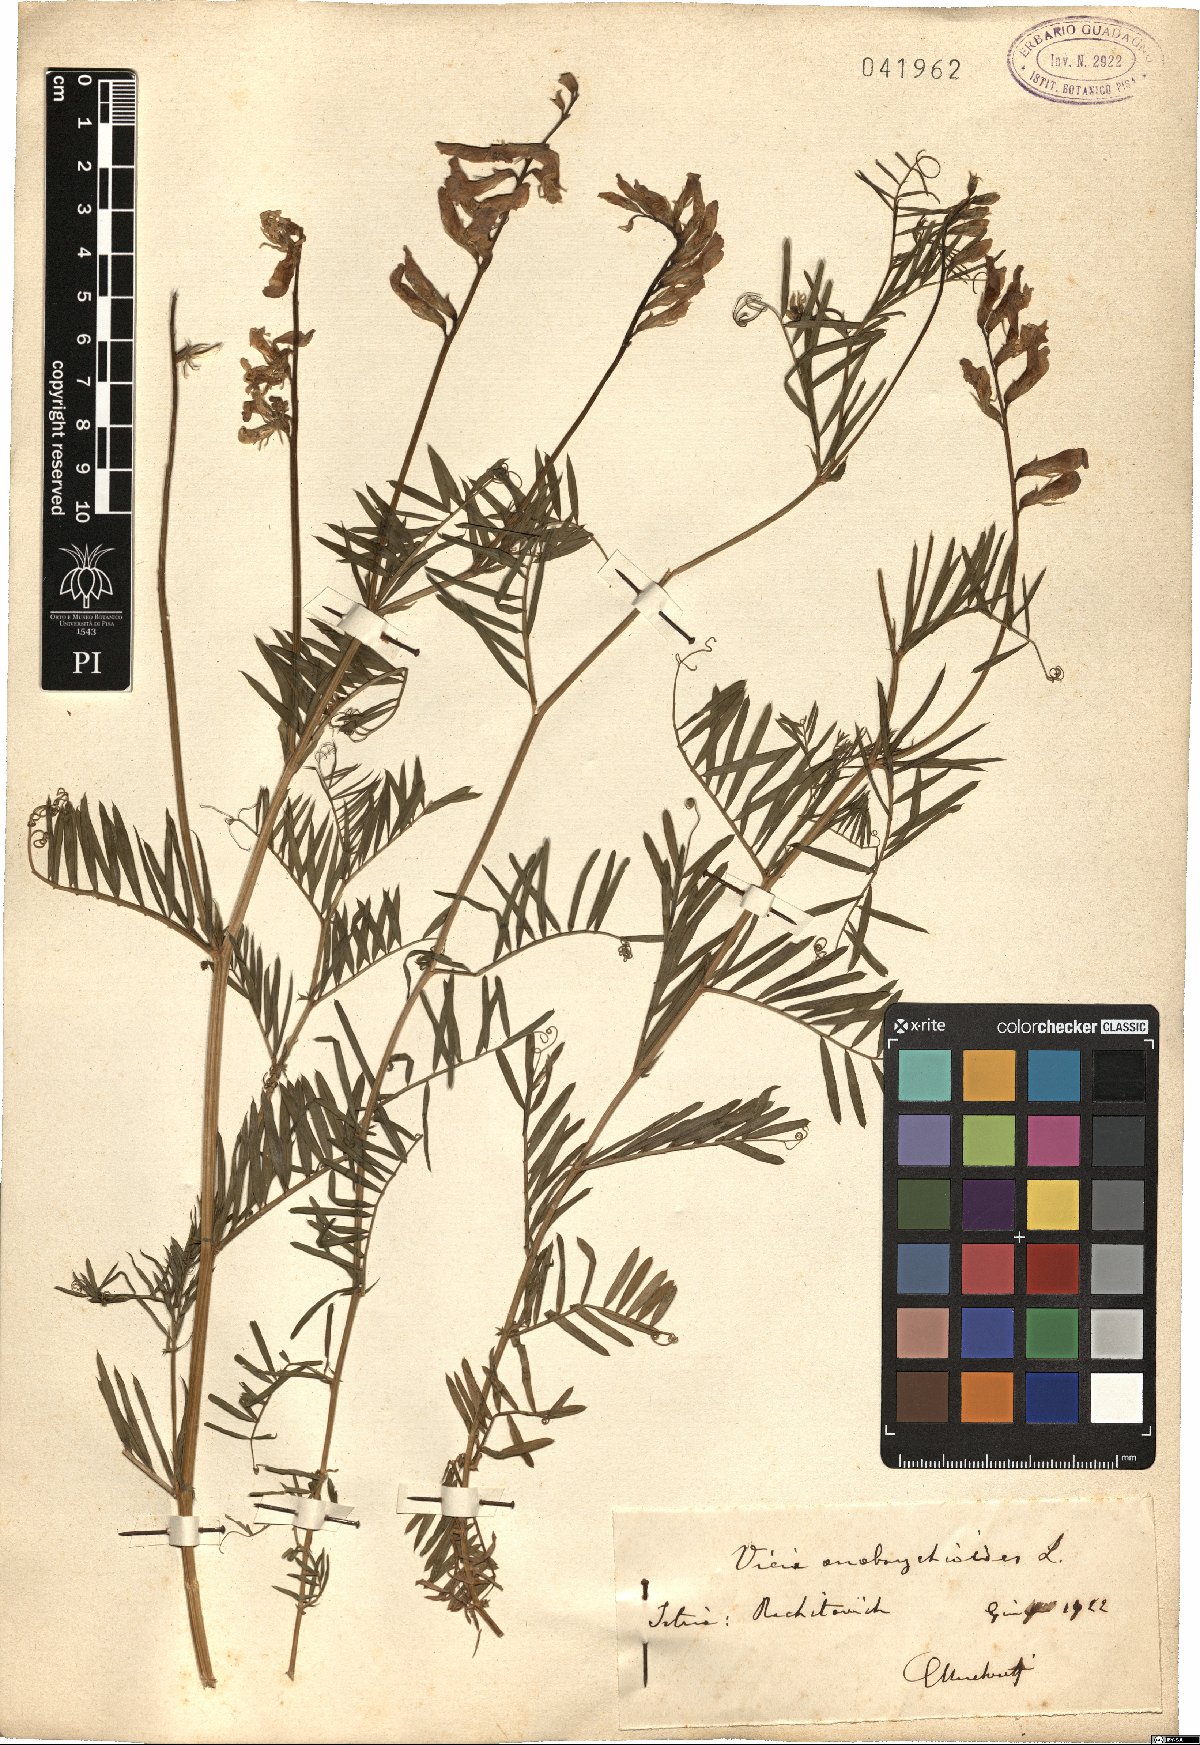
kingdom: Plantae
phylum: Tracheophyta
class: Magnoliopsida
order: Fabales
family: Fabaceae
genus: Vicia
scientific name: Vicia onobrychioides
